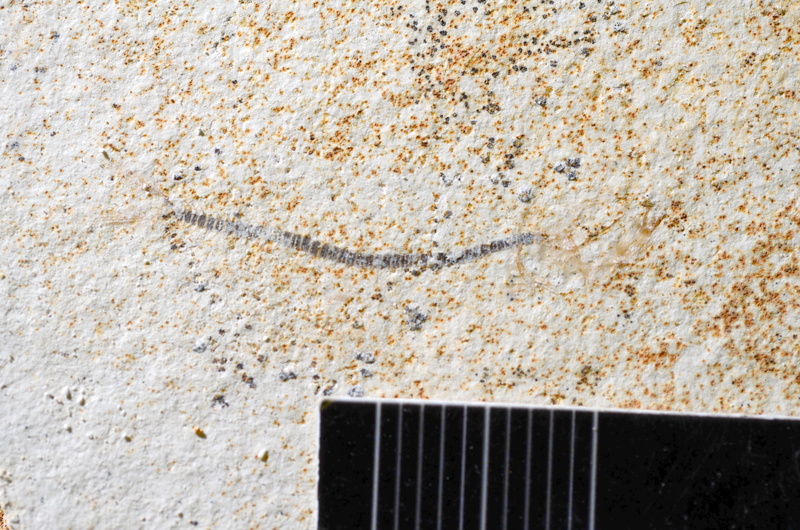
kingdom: Animalia
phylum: Chordata
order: Salmoniformes
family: Orthogonikleithridae
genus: Orthogonikleithrus
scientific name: Orthogonikleithrus hoelli
